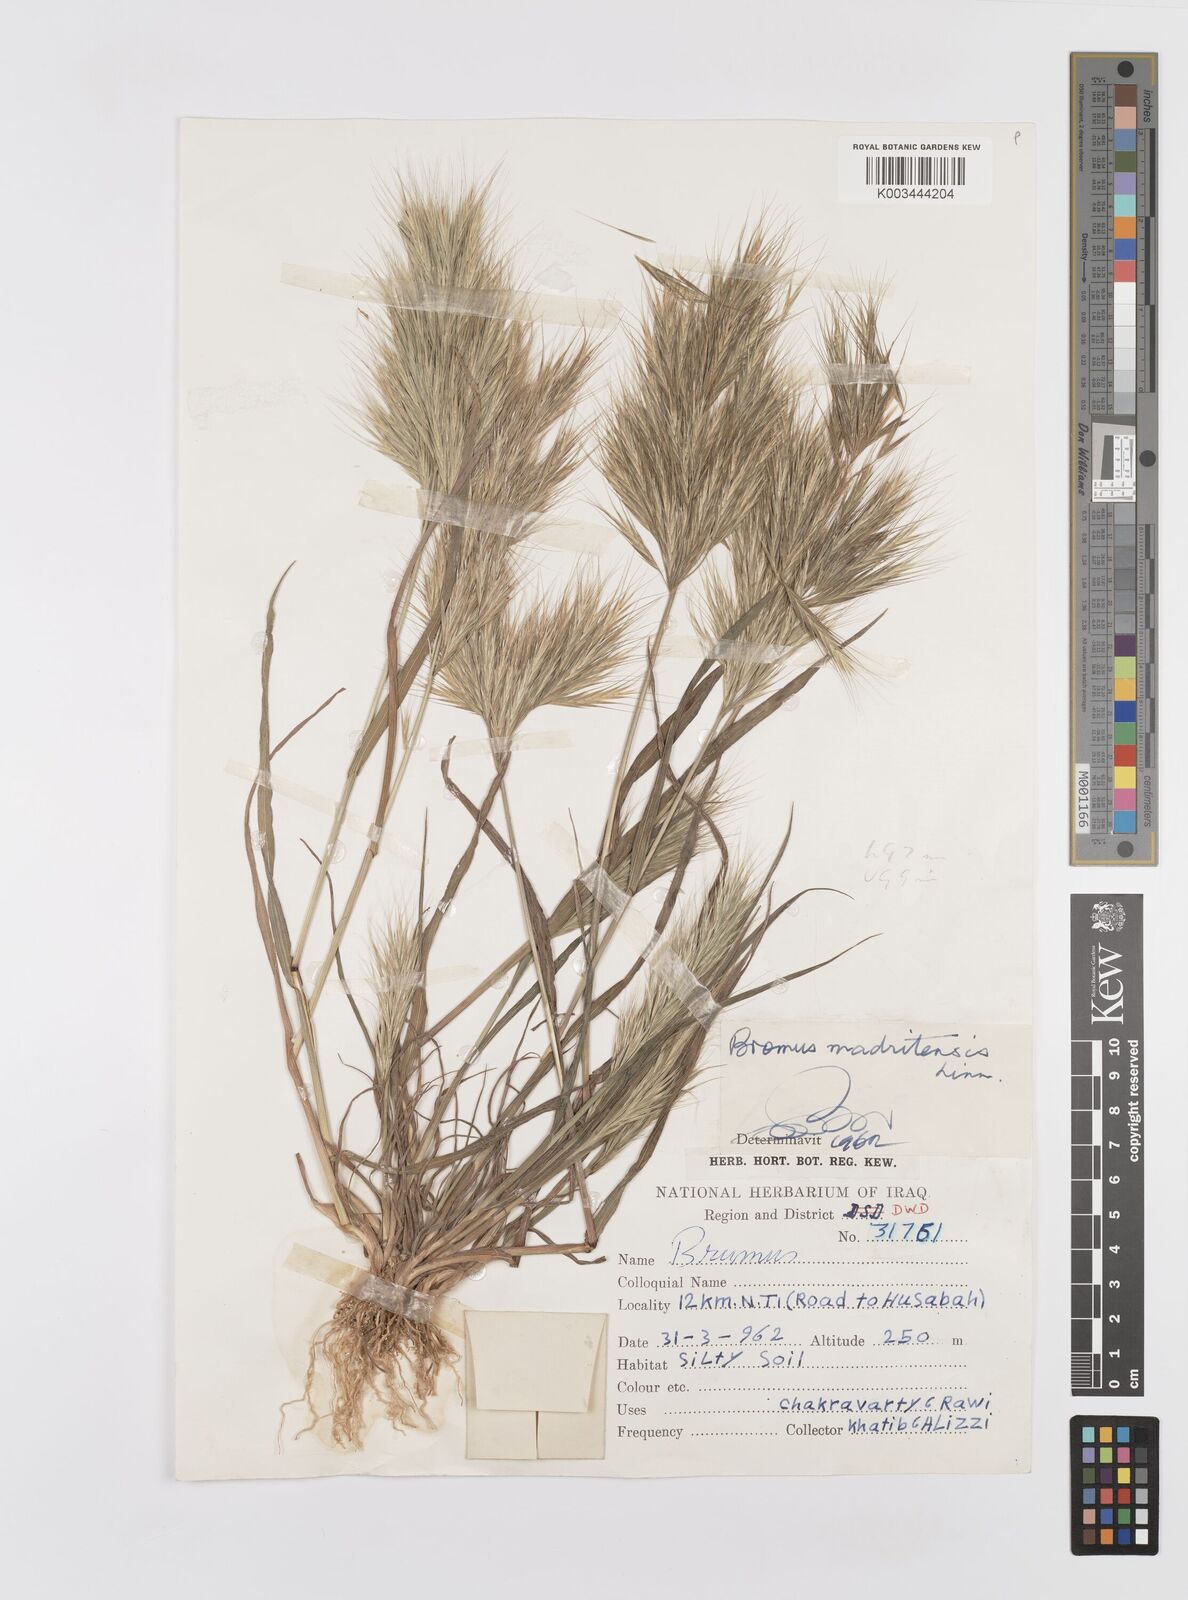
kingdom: Plantae
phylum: Tracheophyta
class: Liliopsida
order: Poales
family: Poaceae
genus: Bromus
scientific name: Bromus madritensis
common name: Compact brome
